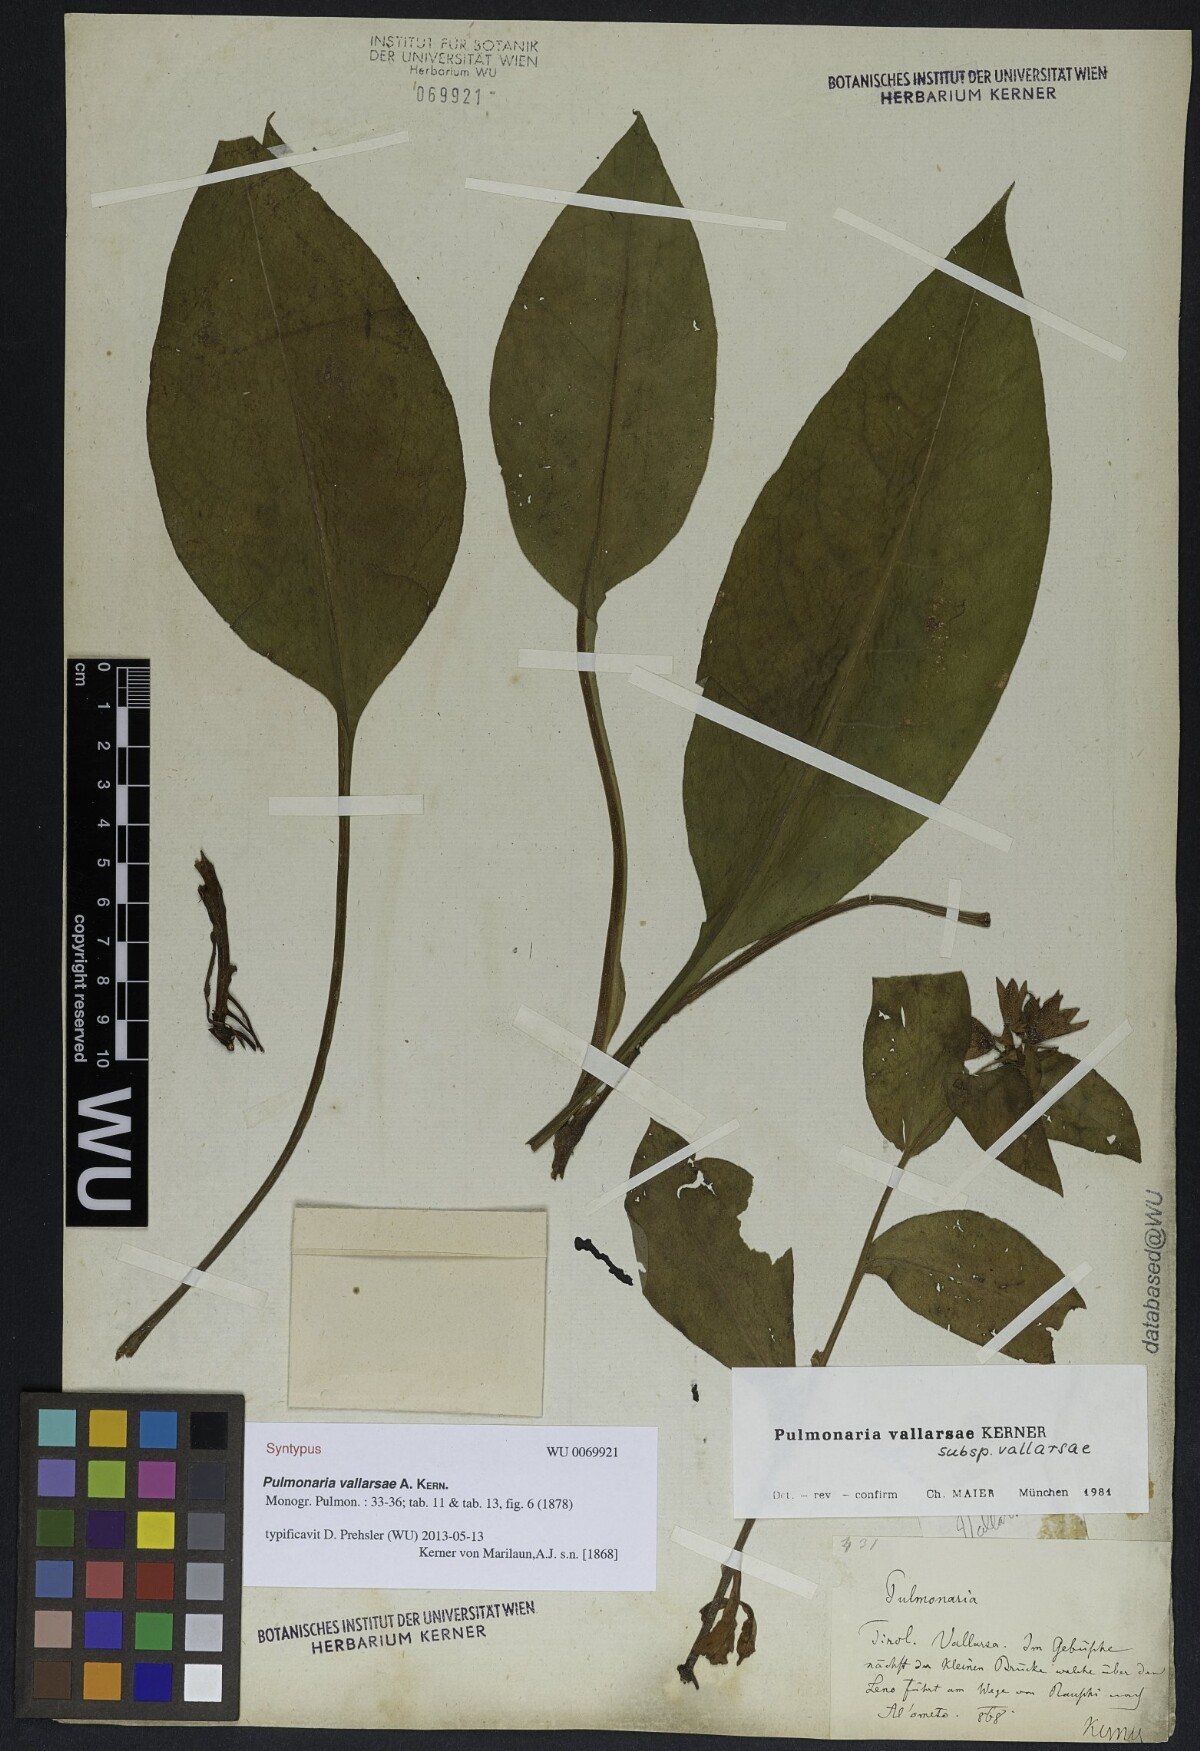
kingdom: Plantae
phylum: Tracheophyta
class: Magnoliopsida
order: Boraginales
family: Boraginaceae
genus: Pulmonaria
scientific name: Pulmonaria hirta
